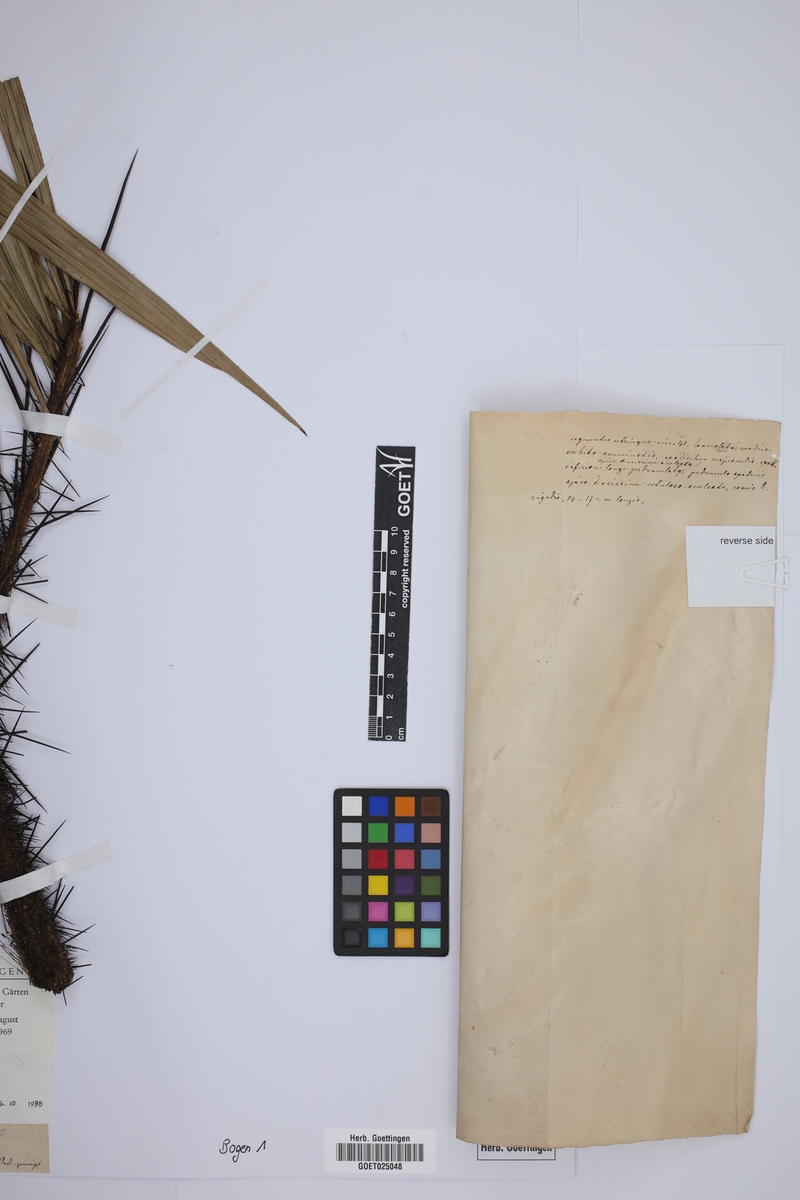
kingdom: Plantae
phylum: Tracheophyta
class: Liliopsida
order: Arecales
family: Arecaceae
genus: Bactris
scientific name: Bactris major
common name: Beach palm
